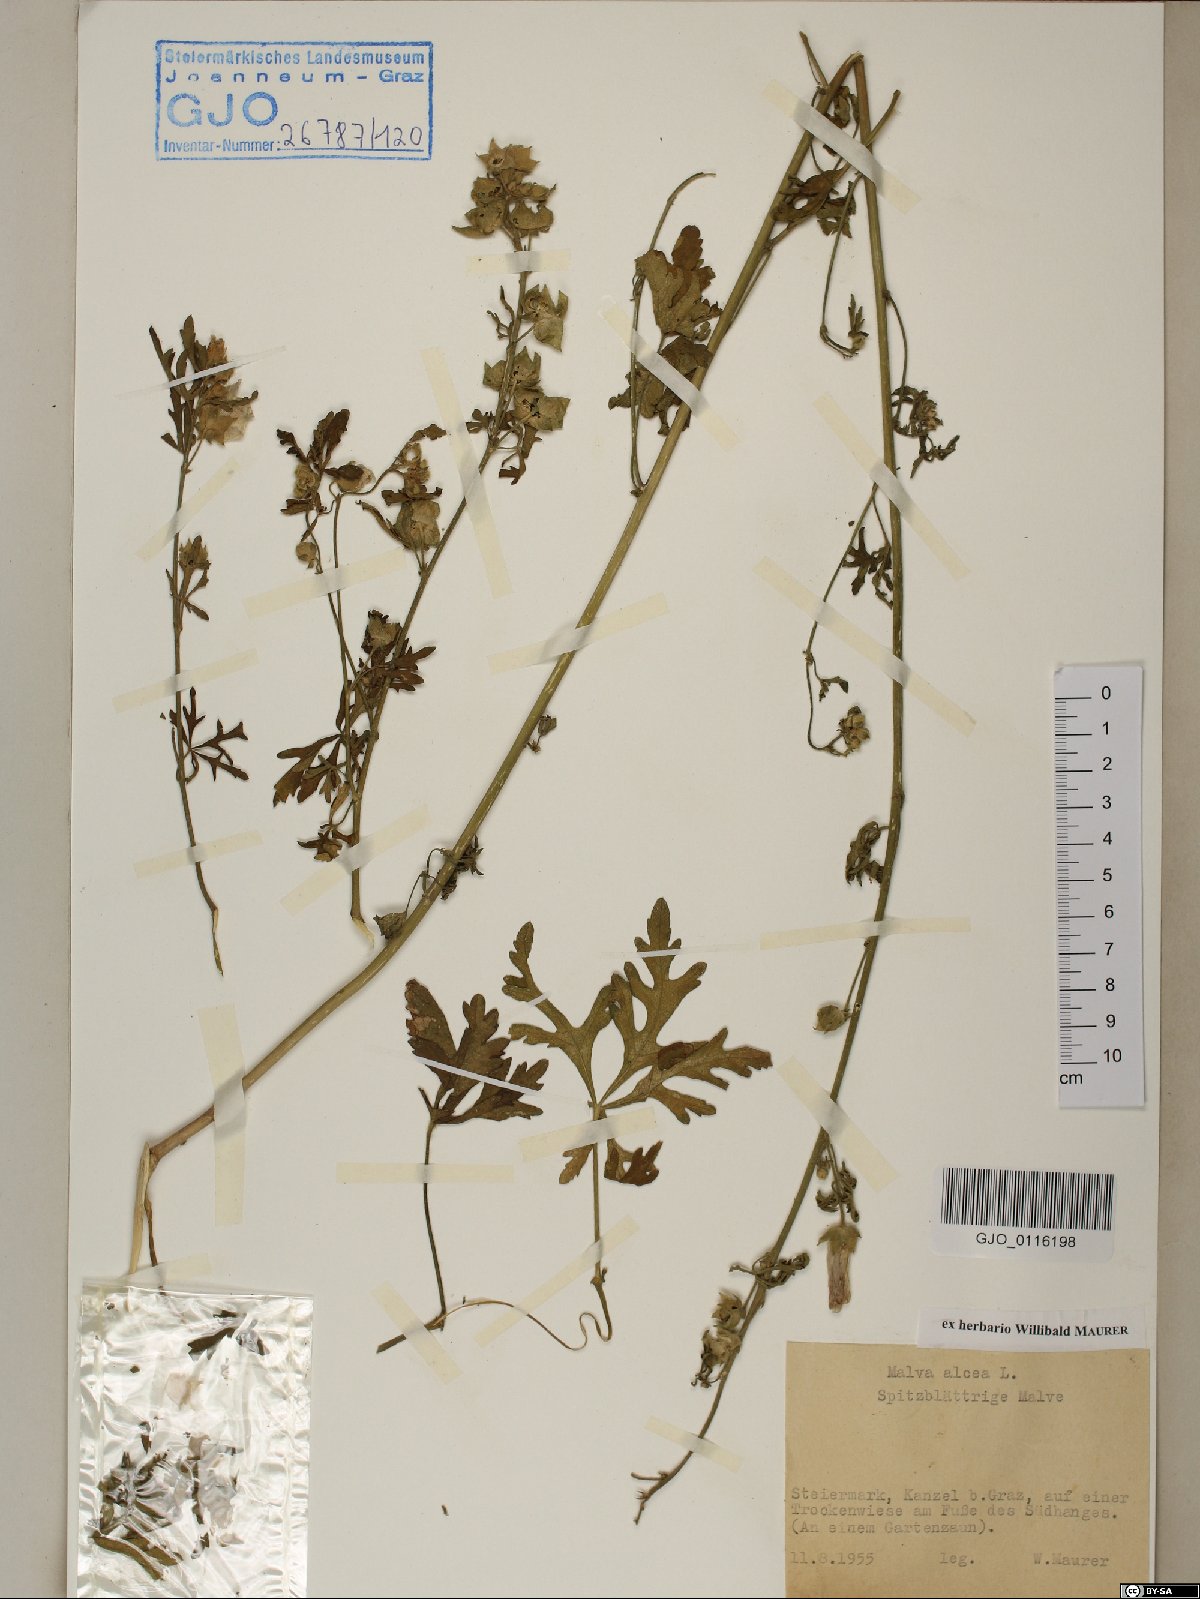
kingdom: Plantae
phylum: Tracheophyta
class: Magnoliopsida
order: Malvales
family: Malvaceae
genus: Malva
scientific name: Malva alcea
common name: Greater musk-mallow
